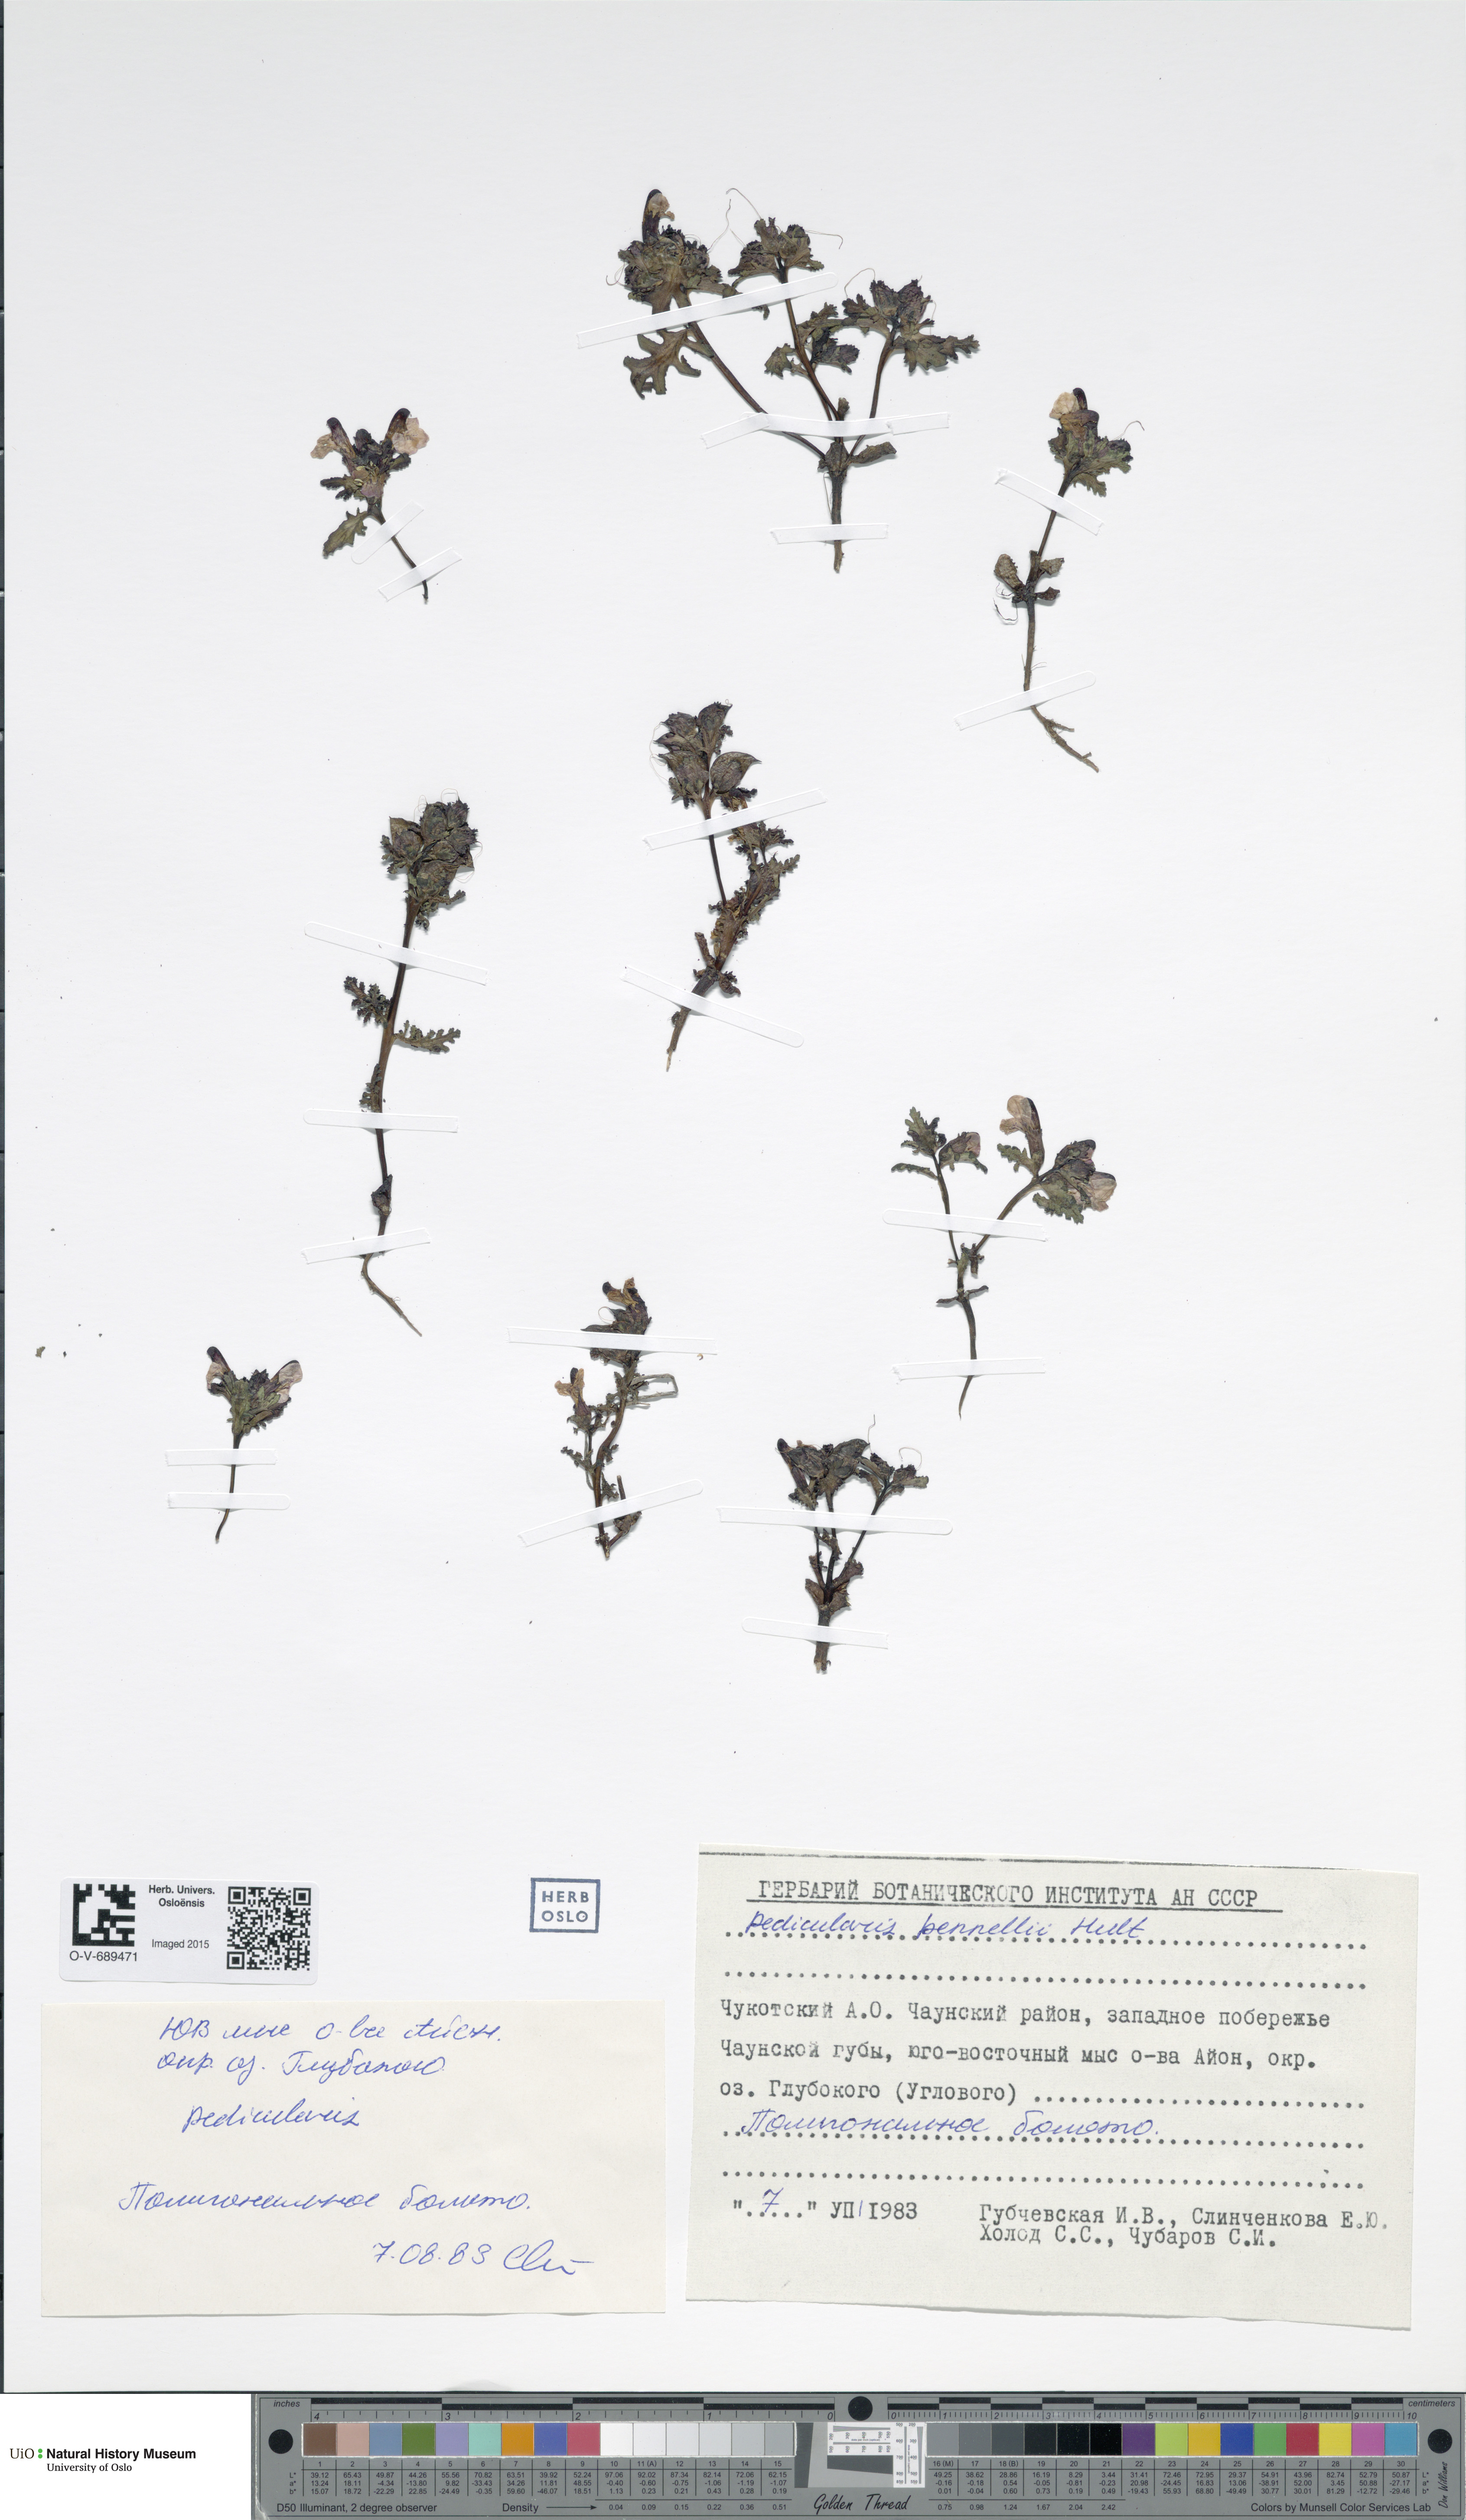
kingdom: Plantae
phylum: Tracheophyta
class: Magnoliopsida
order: Lamiales
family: Orobanchaceae
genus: Pedicularis
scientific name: Pedicularis pennellii
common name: Pennell's lousewort
